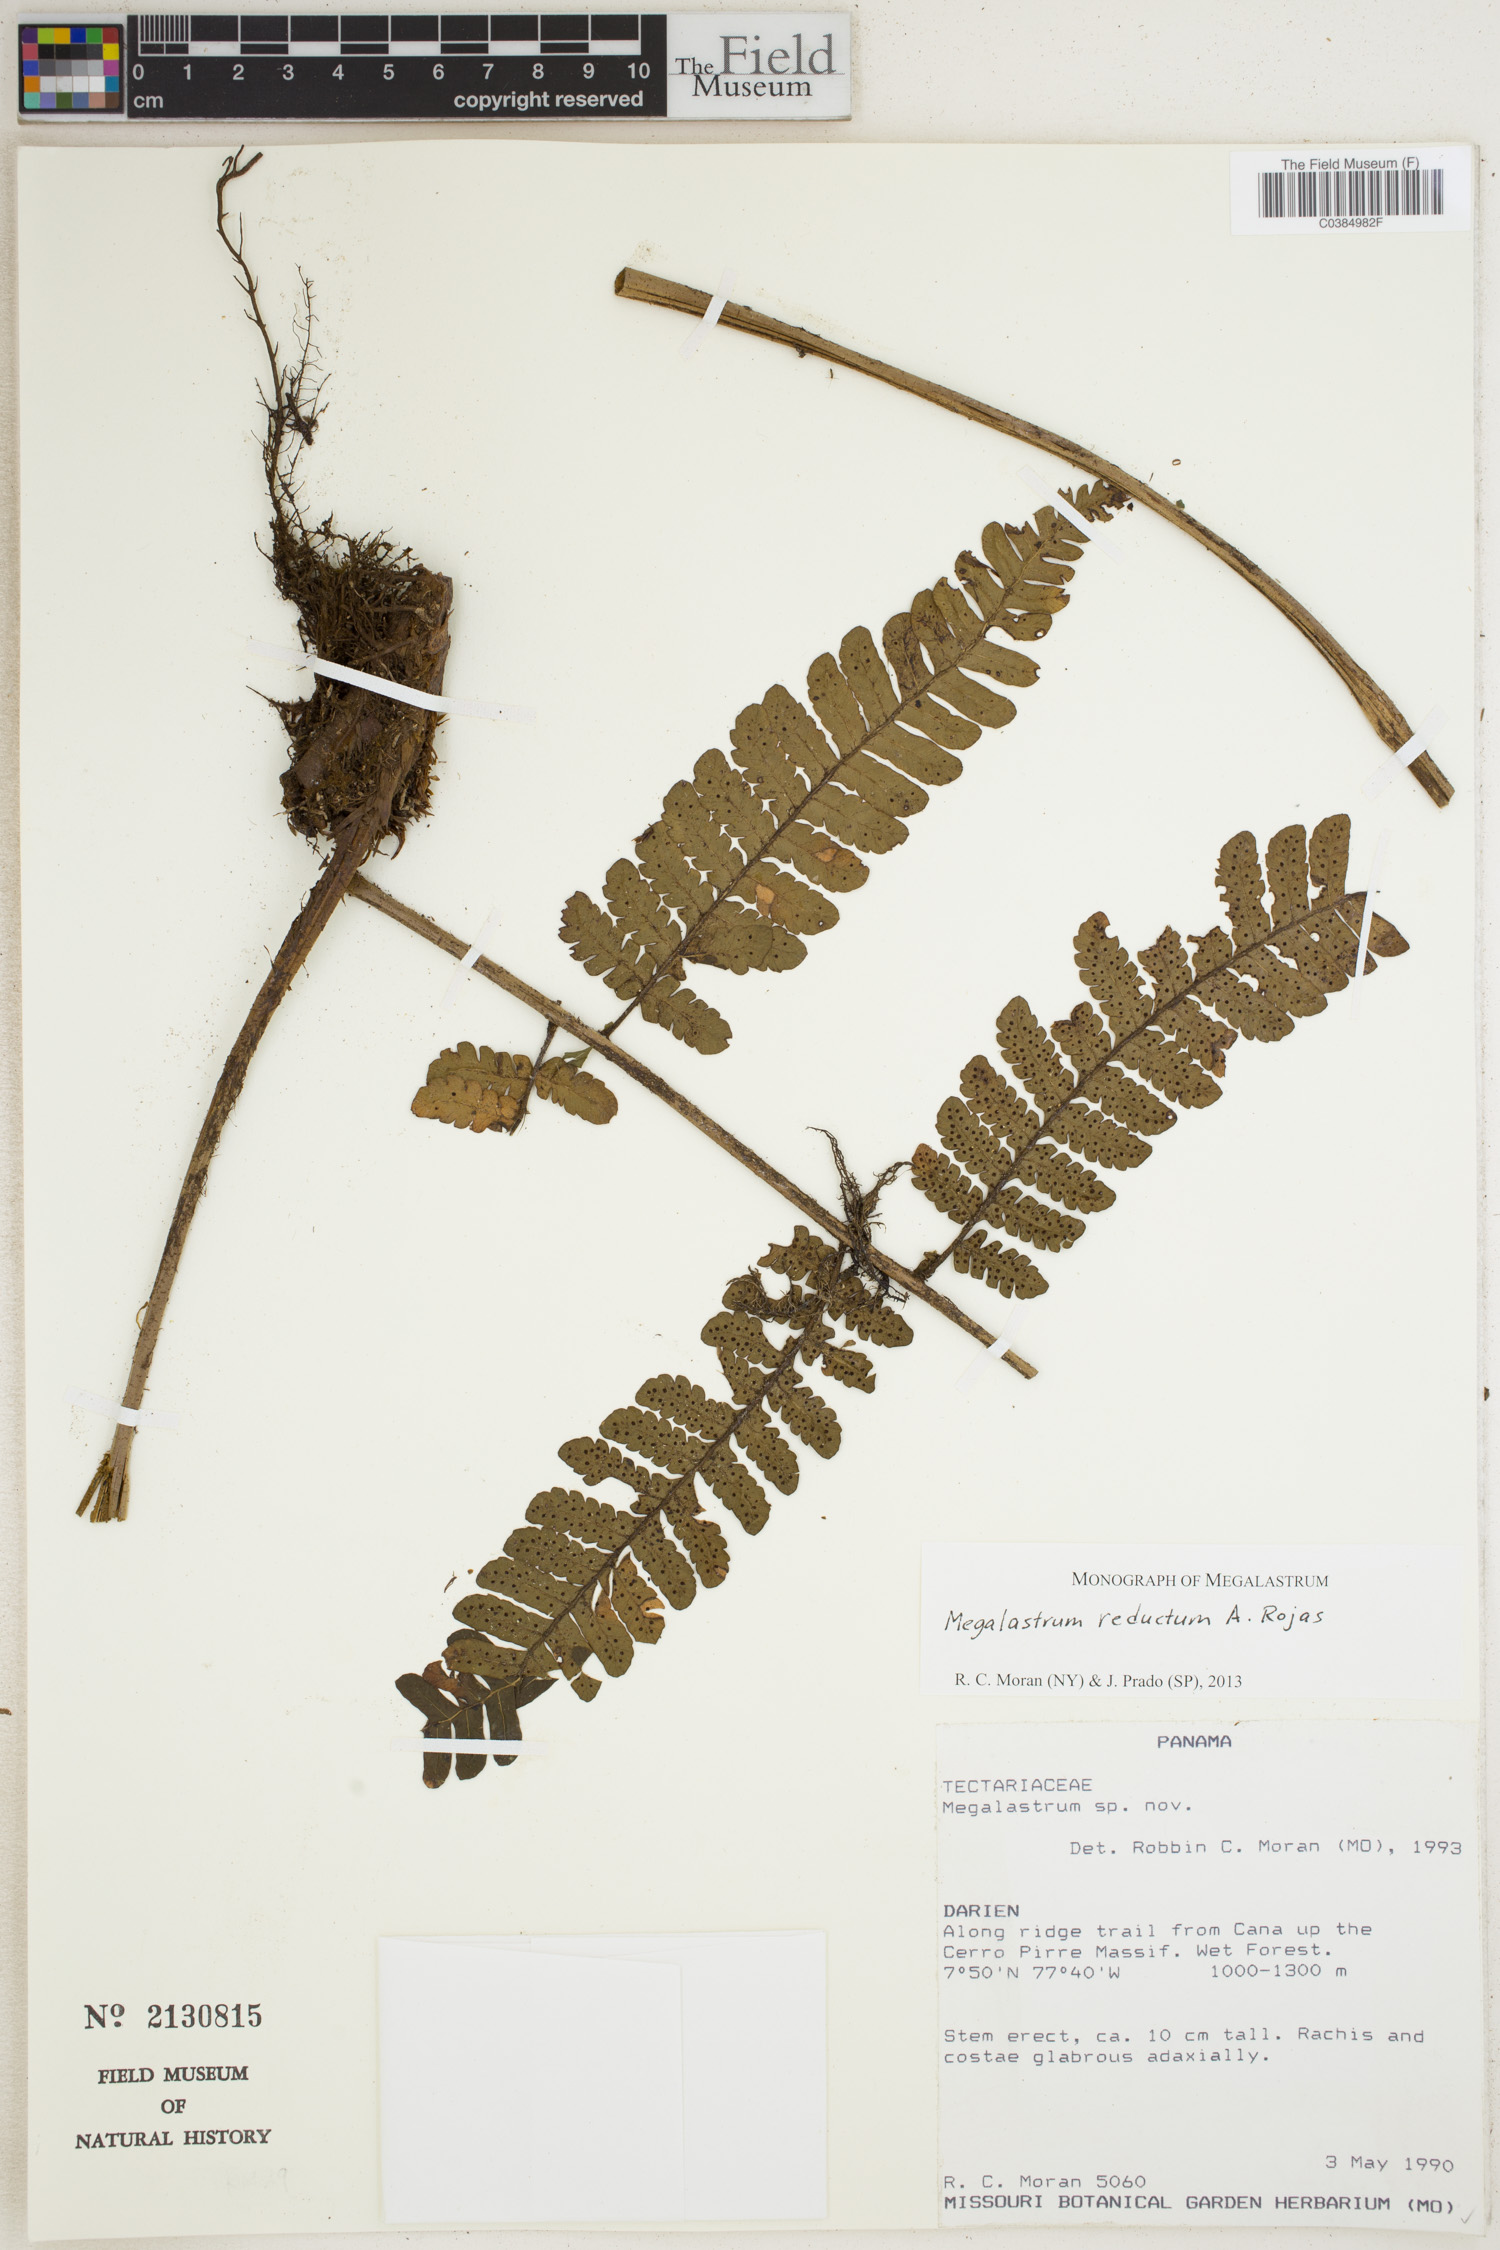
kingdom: Plantae
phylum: Tracheophyta
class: Polypodiopsida
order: Polypodiales
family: Dryopteridaceae
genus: Megalastrum
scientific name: Megalastrum reductum
